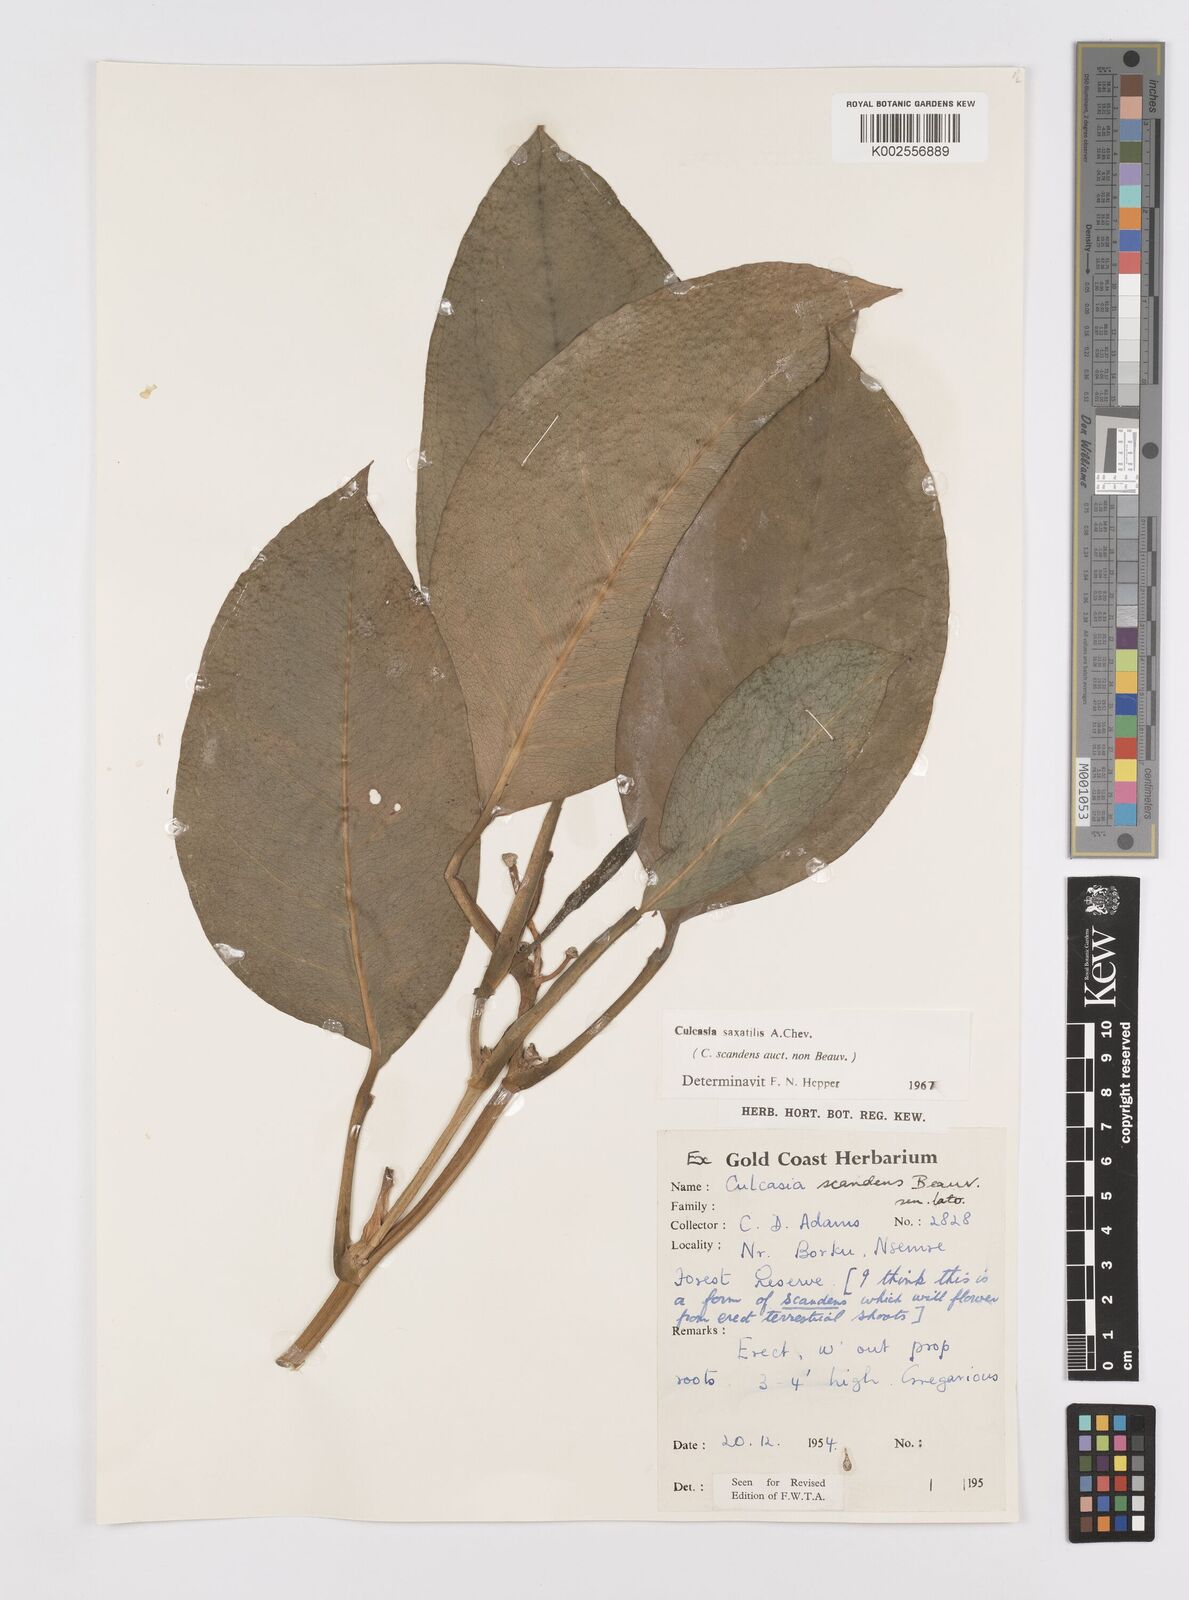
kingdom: Plantae
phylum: Tracheophyta
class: Liliopsida
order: Alismatales
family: Araceae
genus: Culcasia
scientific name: Culcasia scandens
